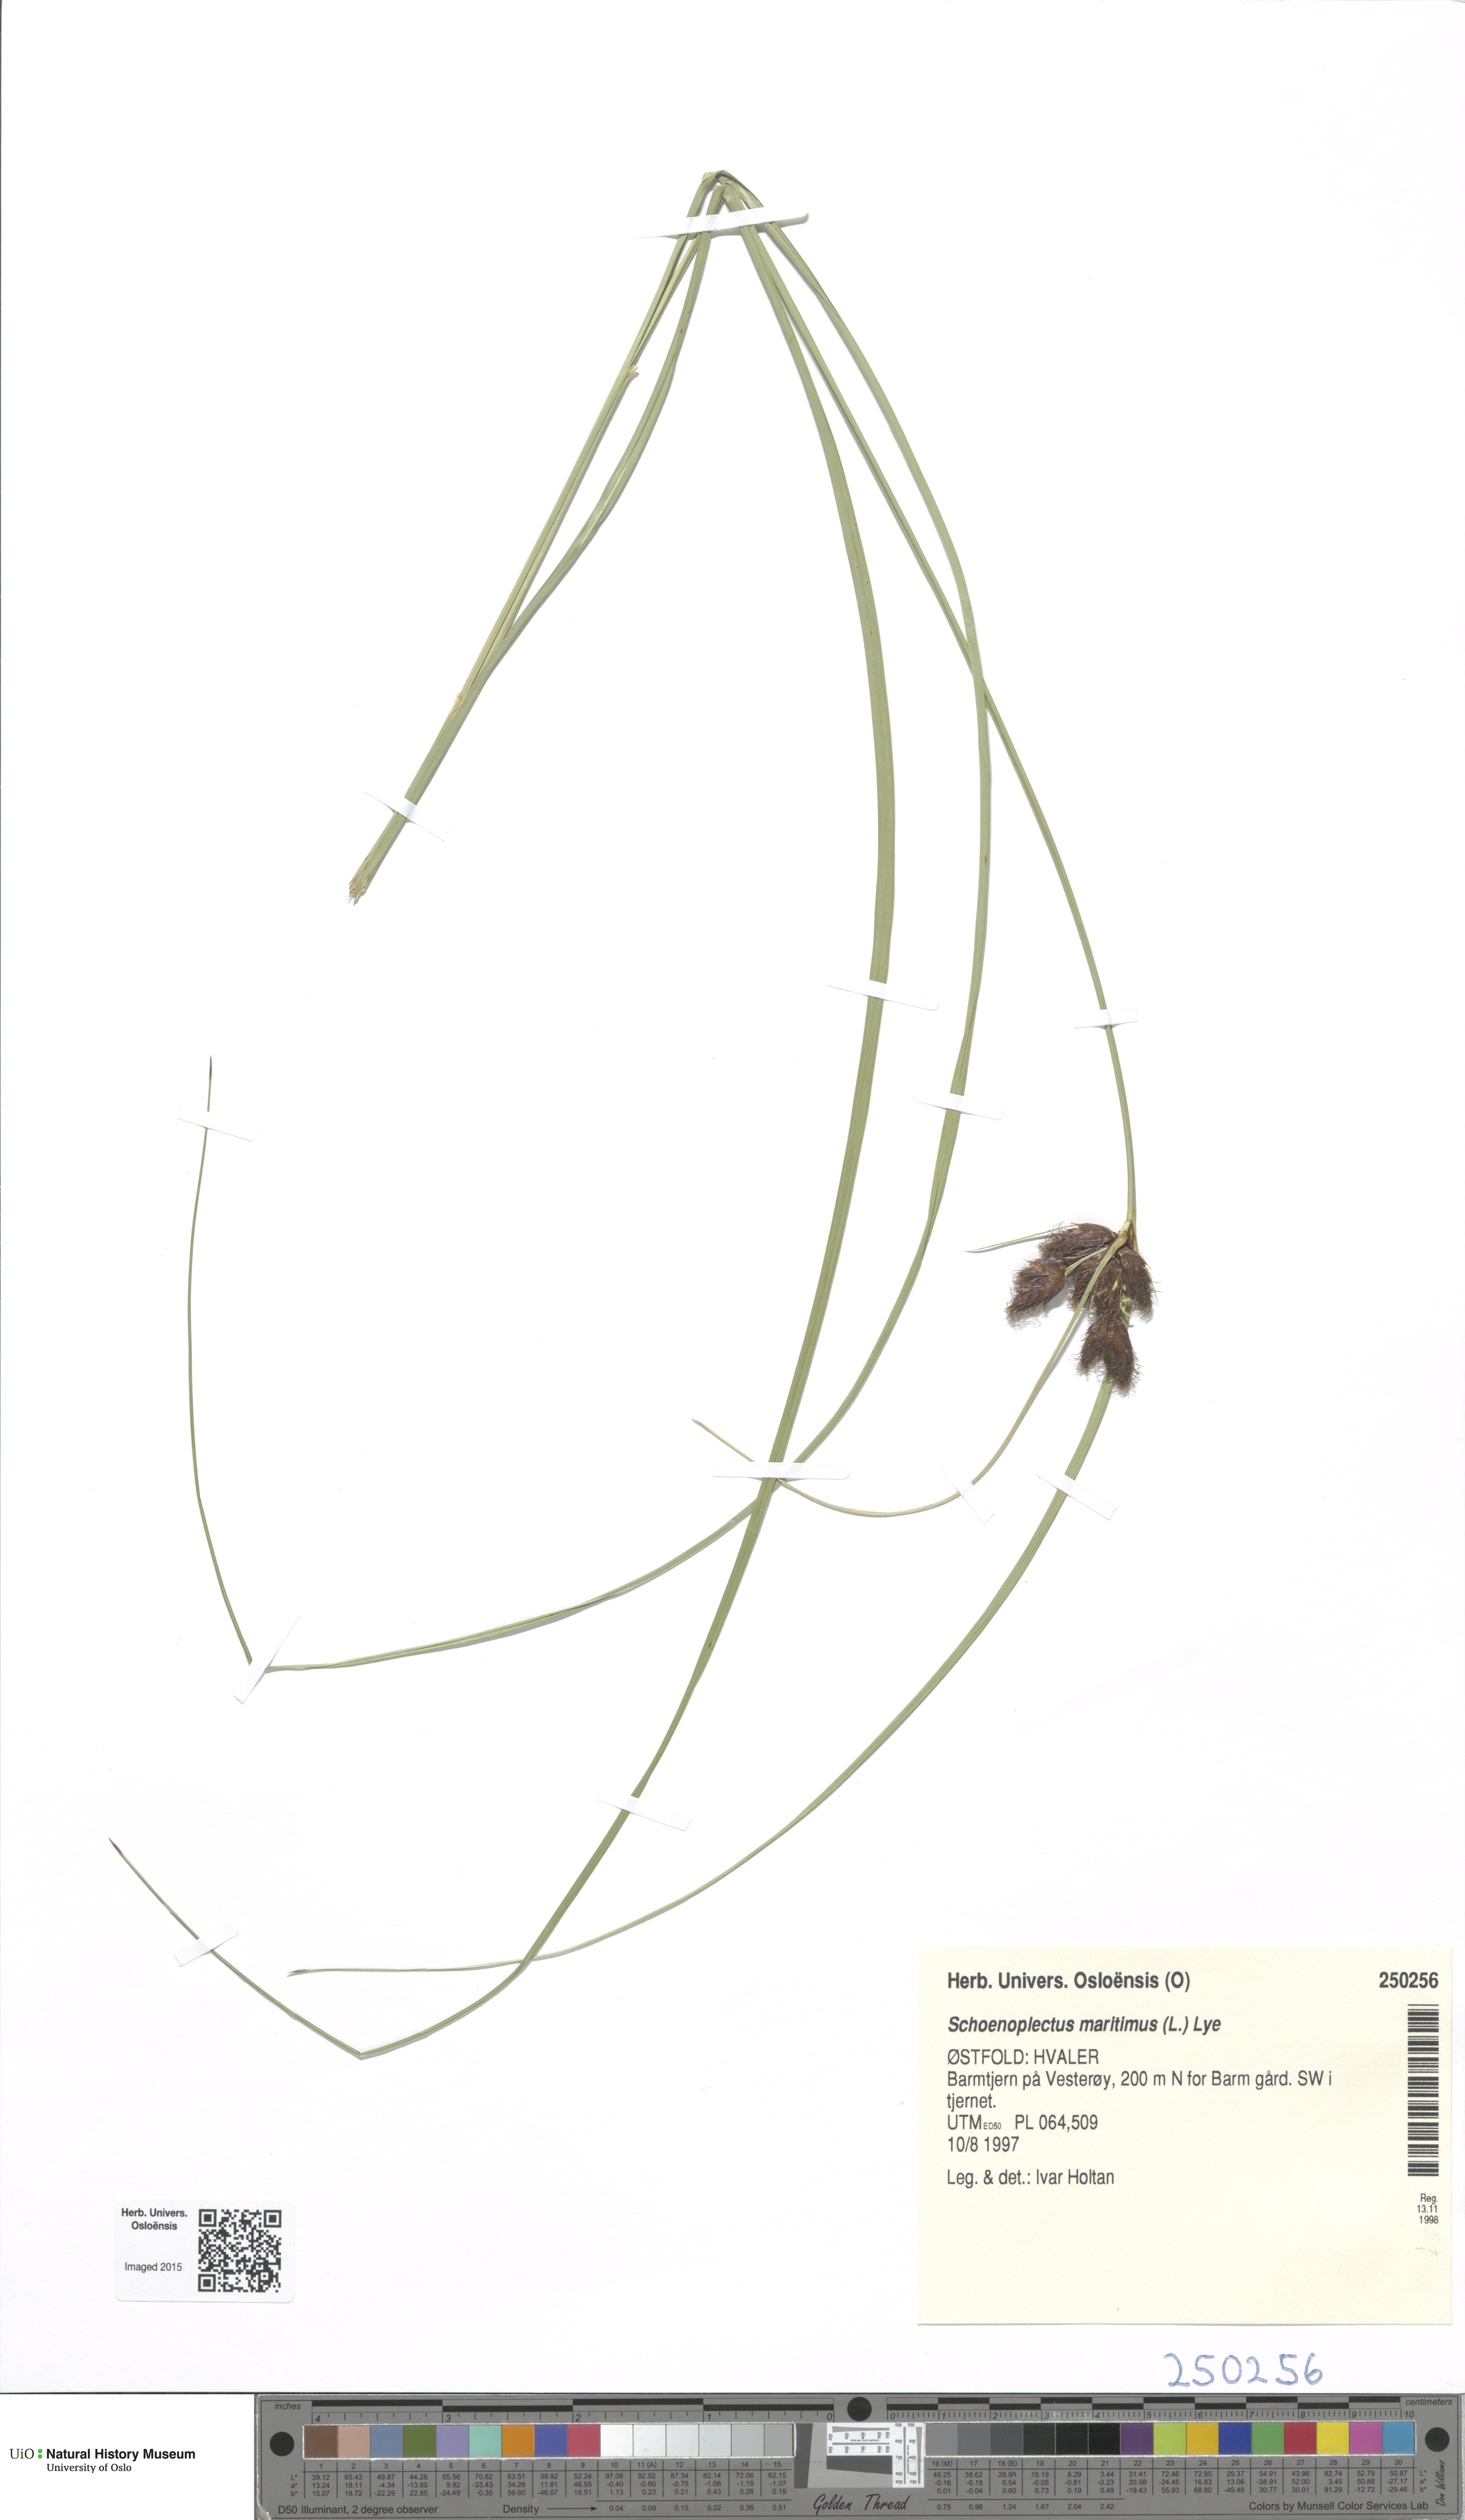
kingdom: Plantae
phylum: Tracheophyta
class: Liliopsida
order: Poales
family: Cyperaceae
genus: Bolboschoenus
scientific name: Bolboschoenus maritimus
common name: Sea club-rush
